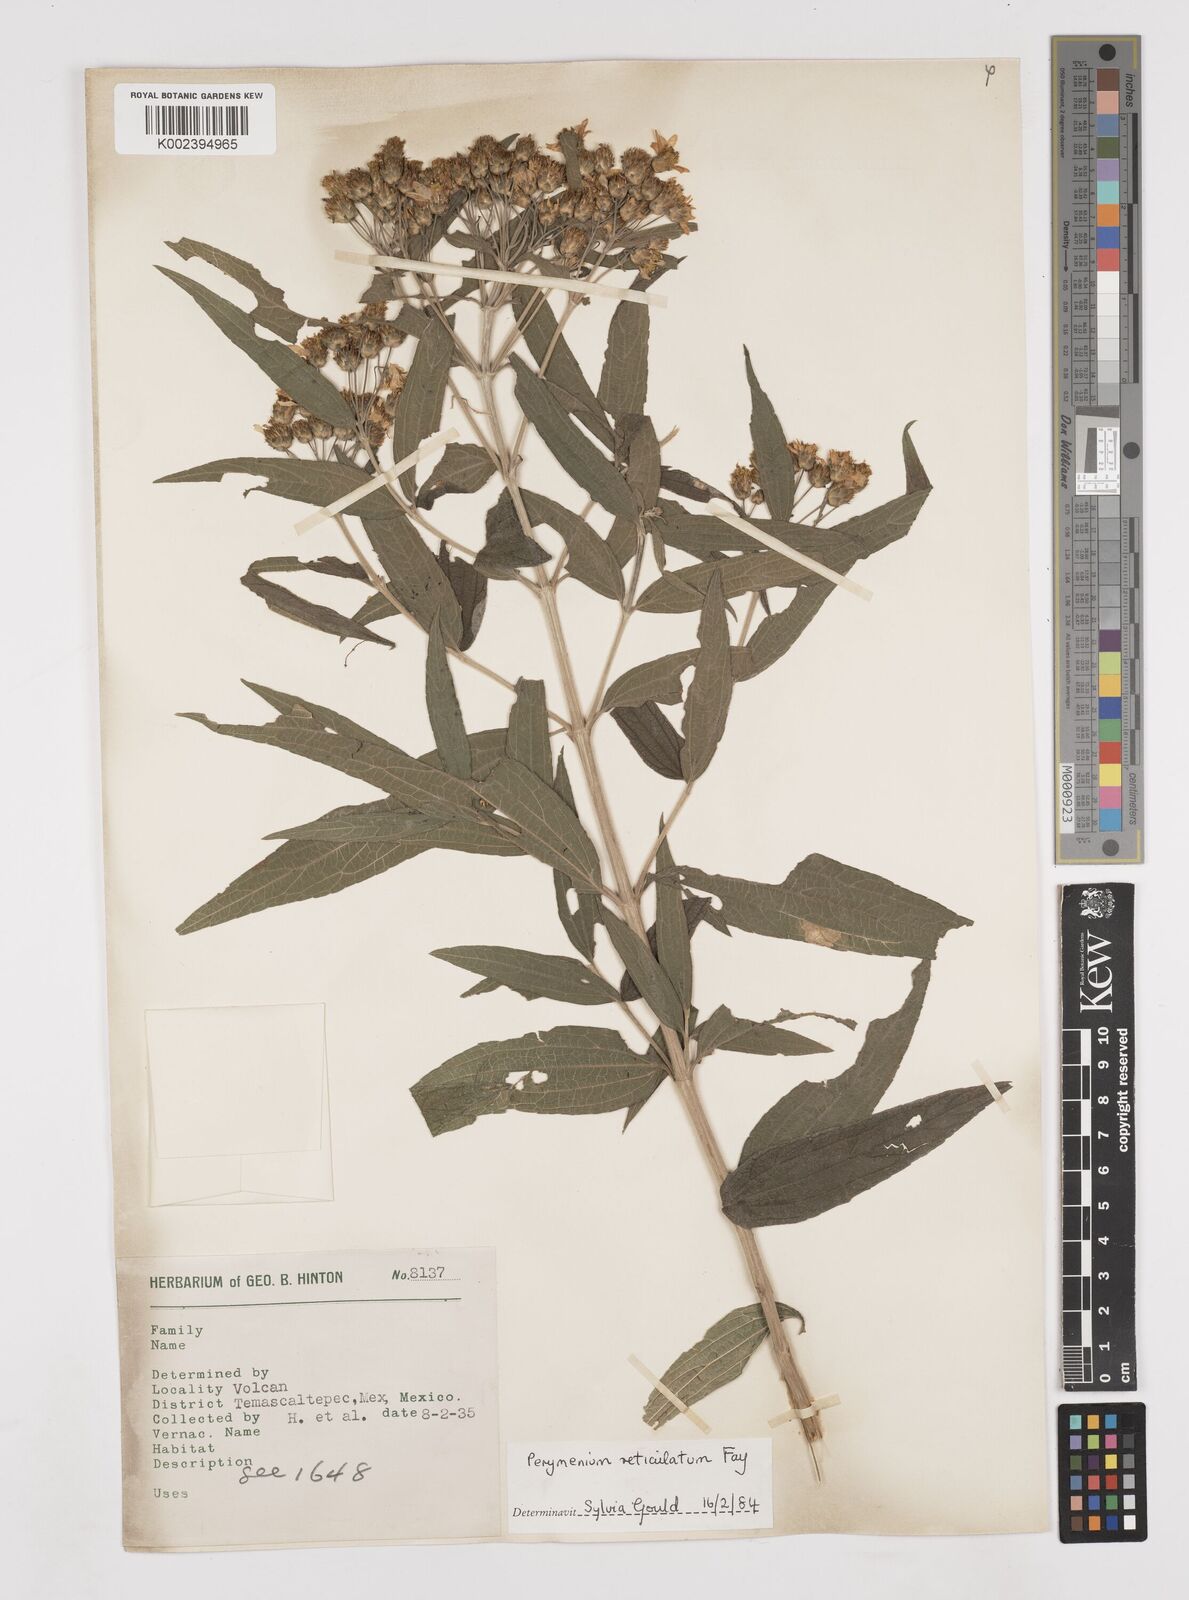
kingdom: Plantae
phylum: Tracheophyta
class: Magnoliopsida
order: Asterales
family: Asteraceae
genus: Perymenium
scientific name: Perymenium reticulatum
